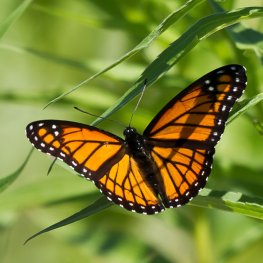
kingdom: Animalia
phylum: Arthropoda
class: Insecta
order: Lepidoptera
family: Nymphalidae
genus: Limenitis
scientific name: Limenitis archippus
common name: Viceroy
